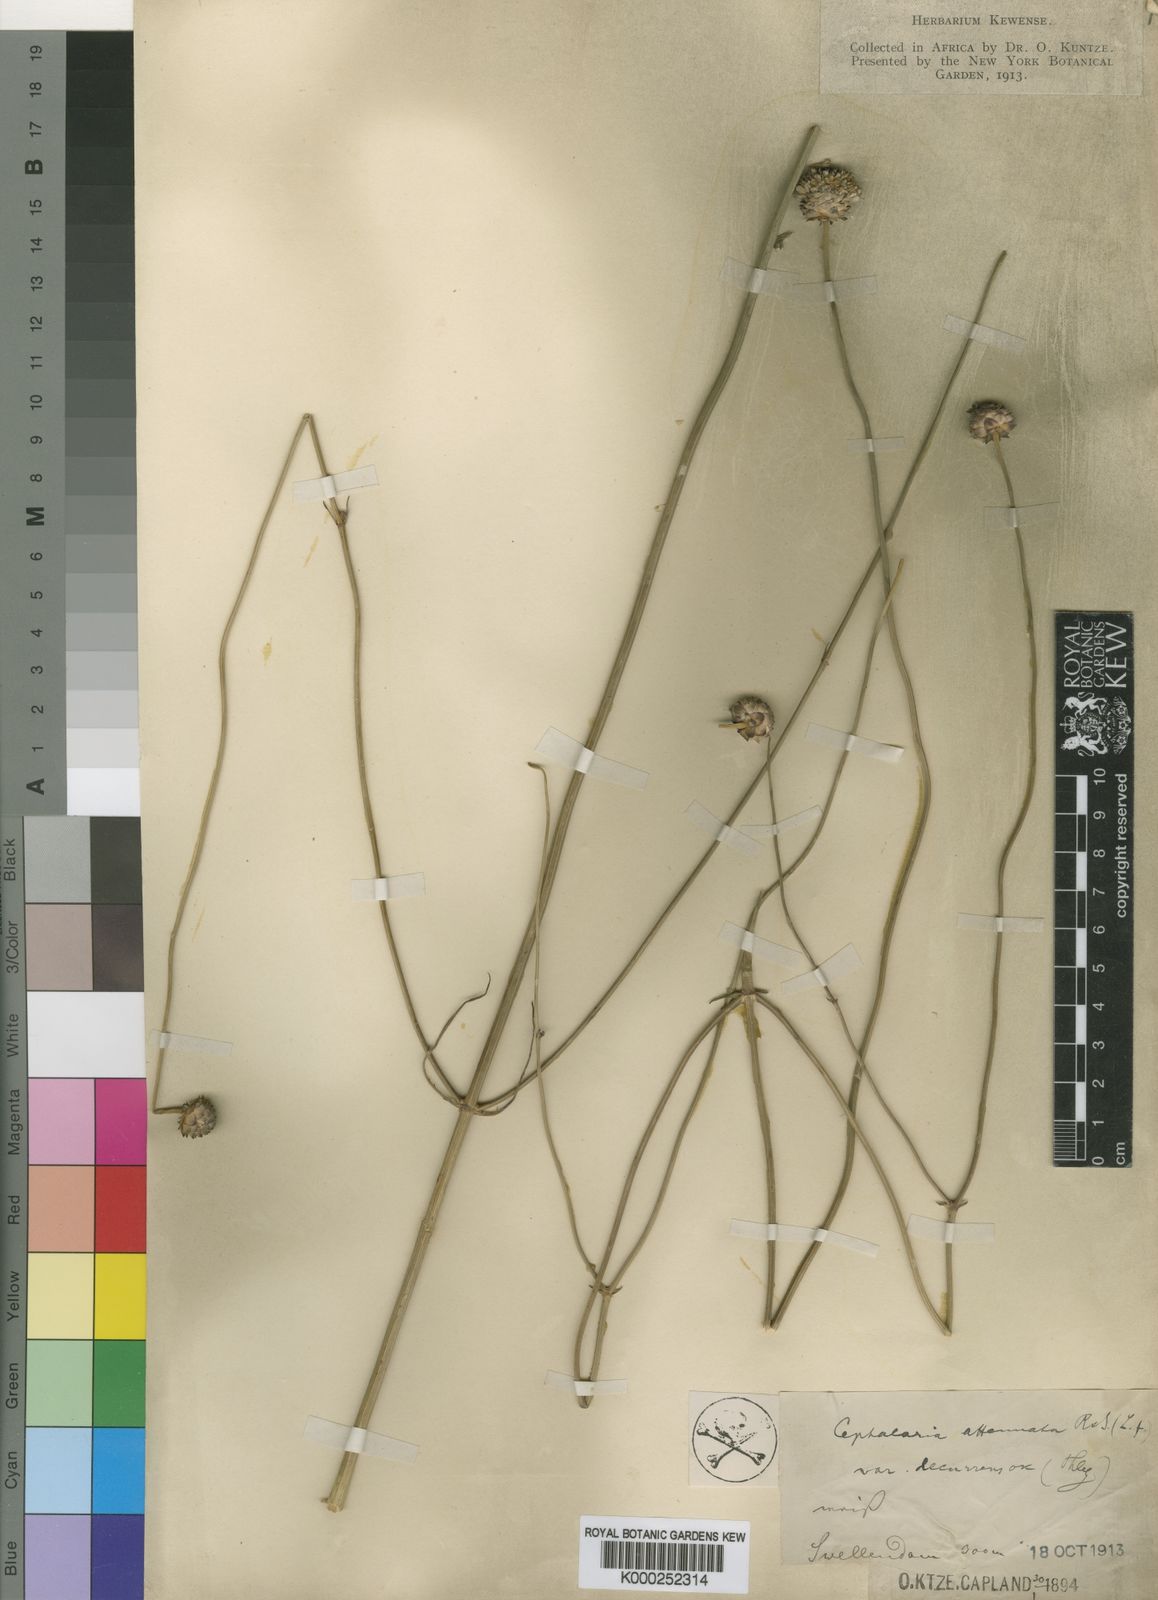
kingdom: Plantae
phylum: Tracheophyta
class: Magnoliopsida
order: Dipsacales
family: Caprifoliaceae
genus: Cephalaria
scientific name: Cephalaria humilis
